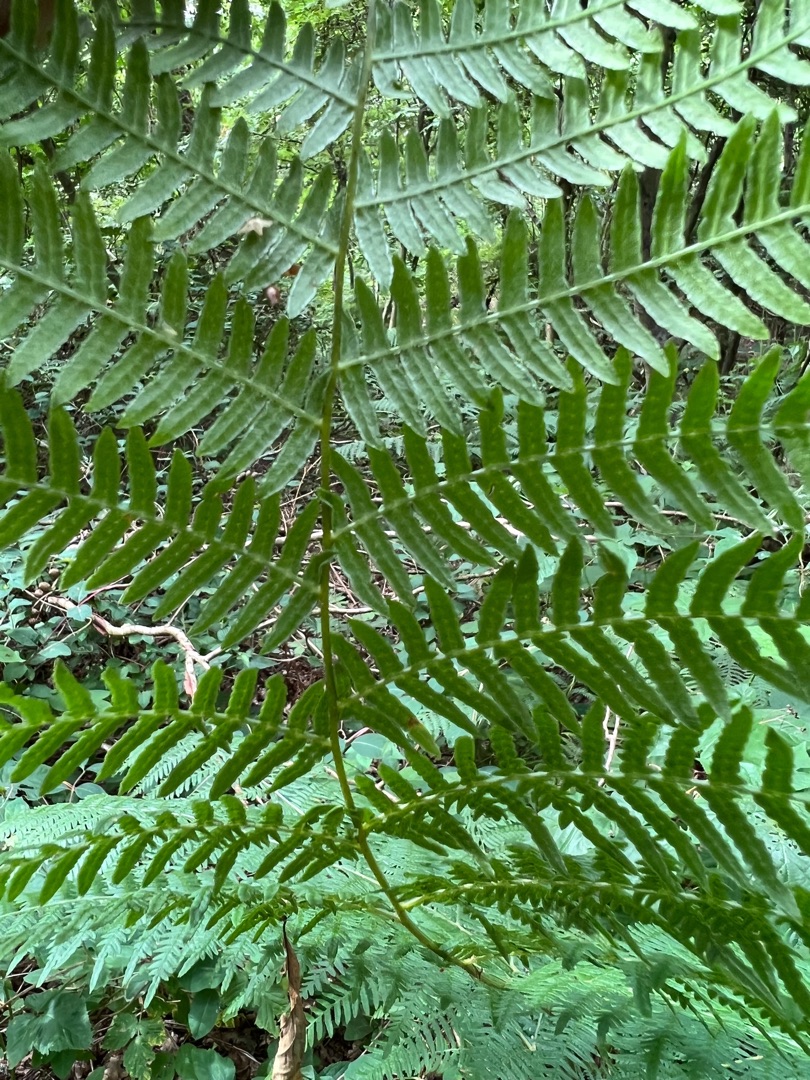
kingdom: Plantae
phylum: Tracheophyta
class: Polypodiopsida
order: Polypodiales
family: Dennstaedtiaceae
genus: Pteridium
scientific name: Pteridium aquilinum
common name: Ørnebregne
